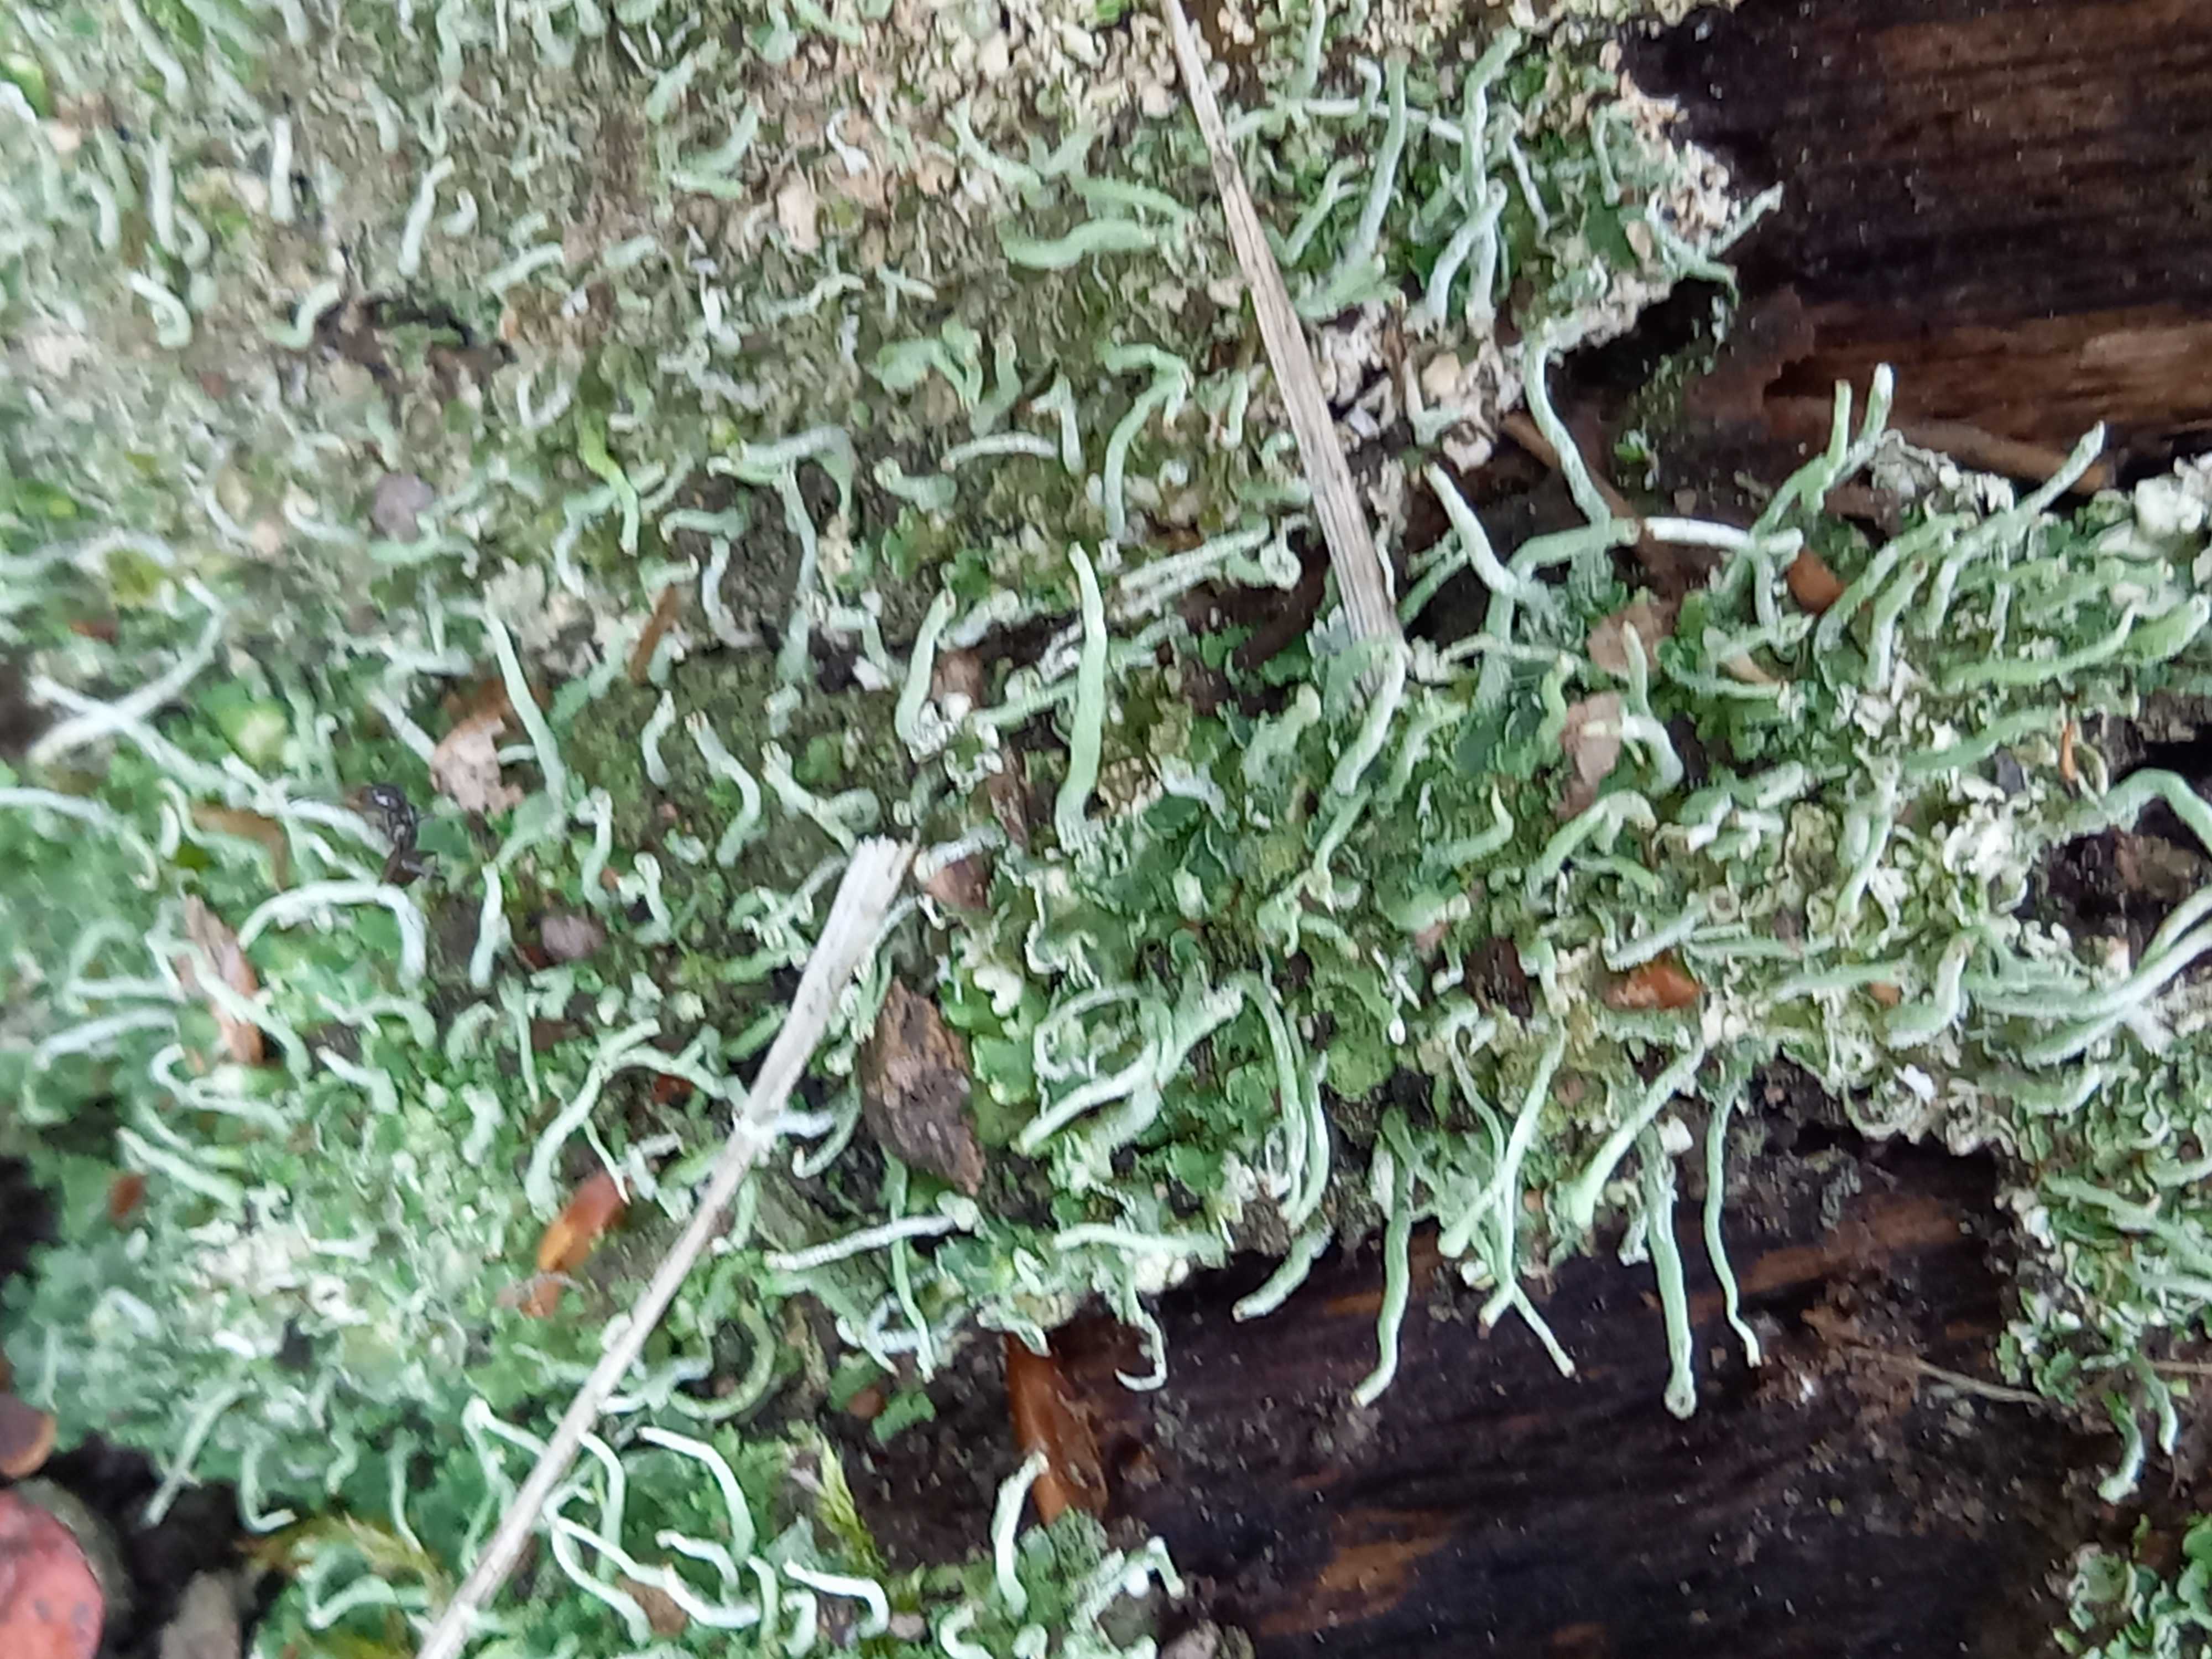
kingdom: Fungi
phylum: Ascomycota
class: Lecanoromycetes
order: Lecanorales
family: Cladoniaceae
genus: Cladonia
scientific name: Cladonia coniocraea
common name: træfods-bægerlav
